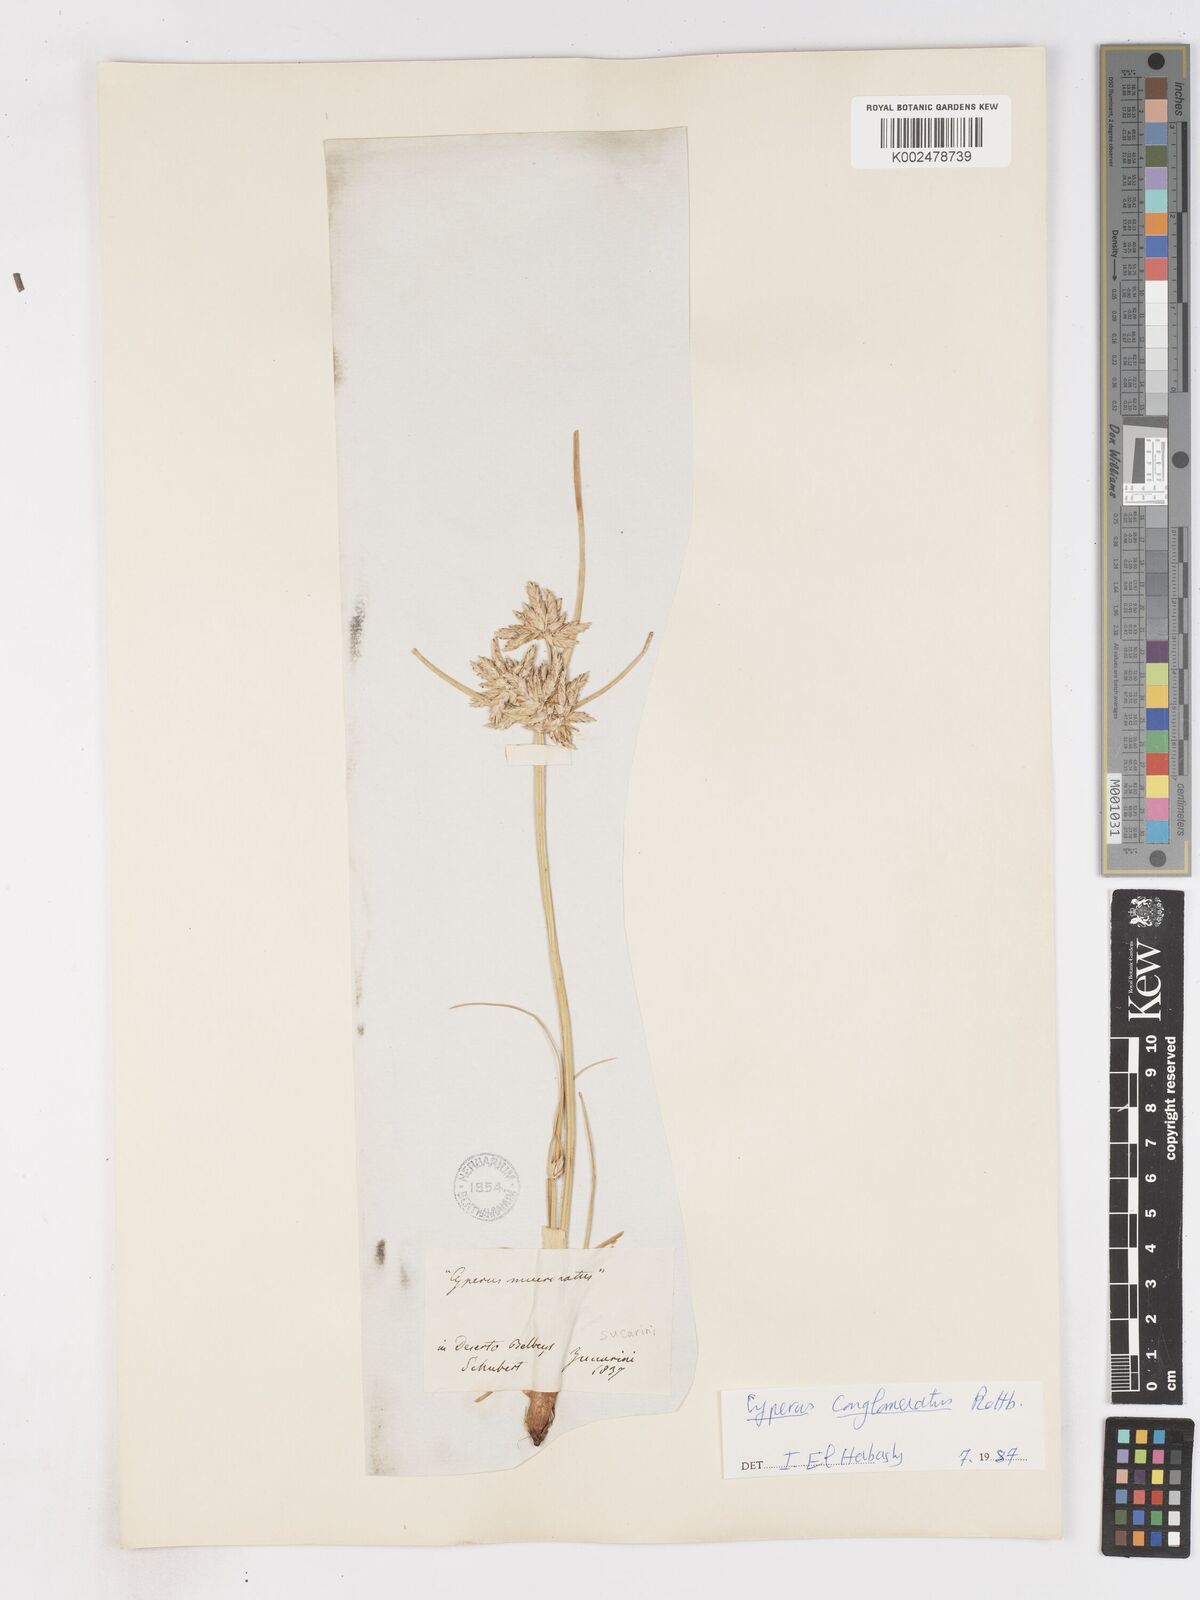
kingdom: Plantae
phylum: Tracheophyta
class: Liliopsida
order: Poales
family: Cyperaceae
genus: Cyperus
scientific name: Cyperus
